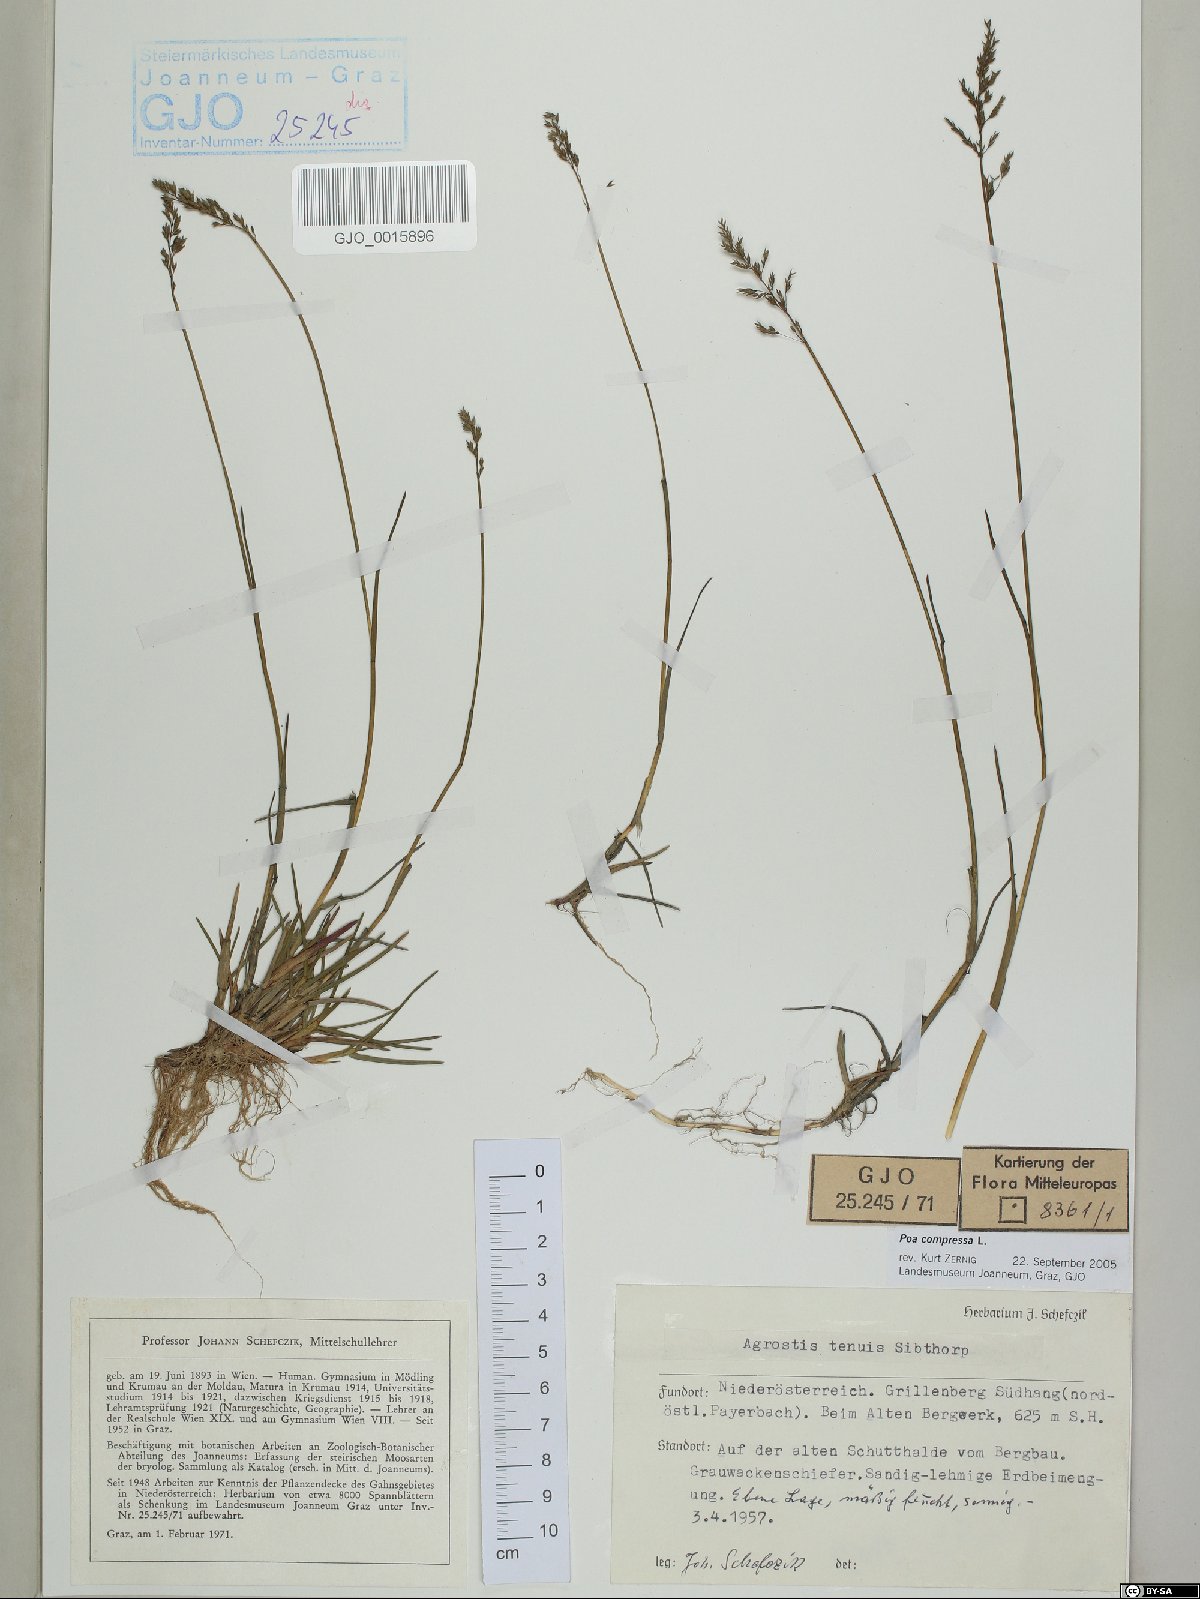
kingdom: Plantae
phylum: Tracheophyta
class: Liliopsida
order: Poales
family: Poaceae
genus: Poa
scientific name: Poa compressa
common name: Canada bluegrass
